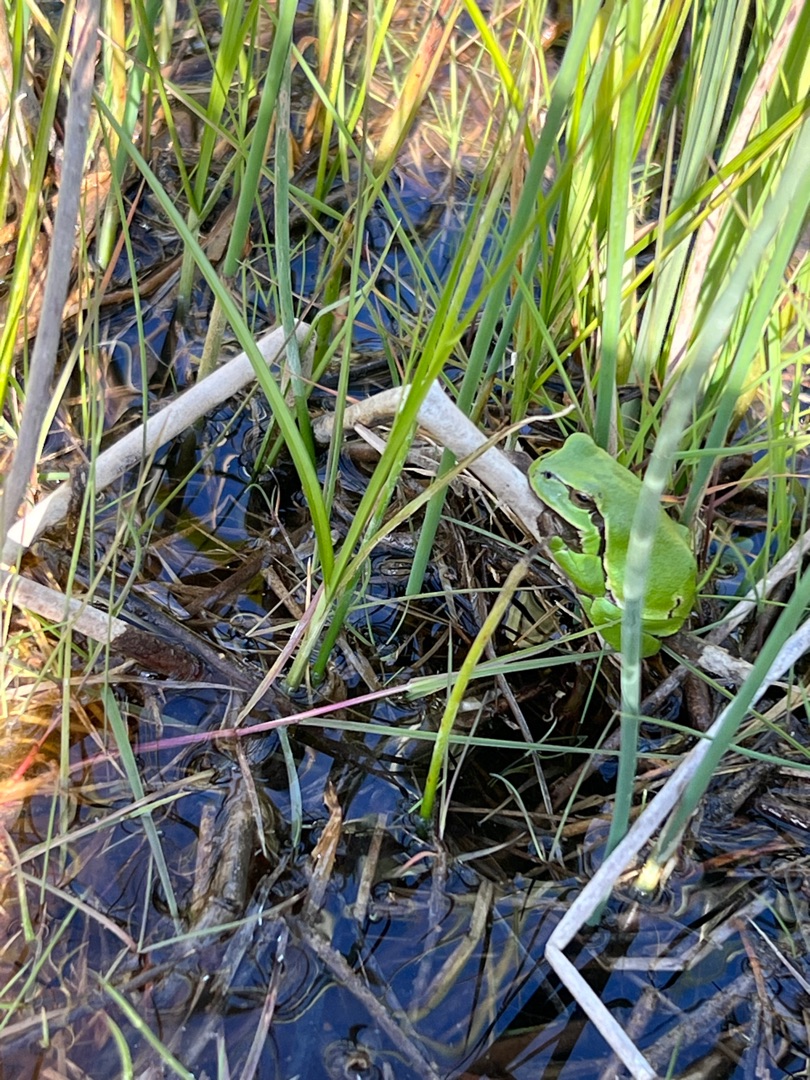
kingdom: Animalia
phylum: Chordata
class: Amphibia
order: Anura
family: Hylidae
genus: Hyla
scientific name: Hyla arborea
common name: Løvfrø
